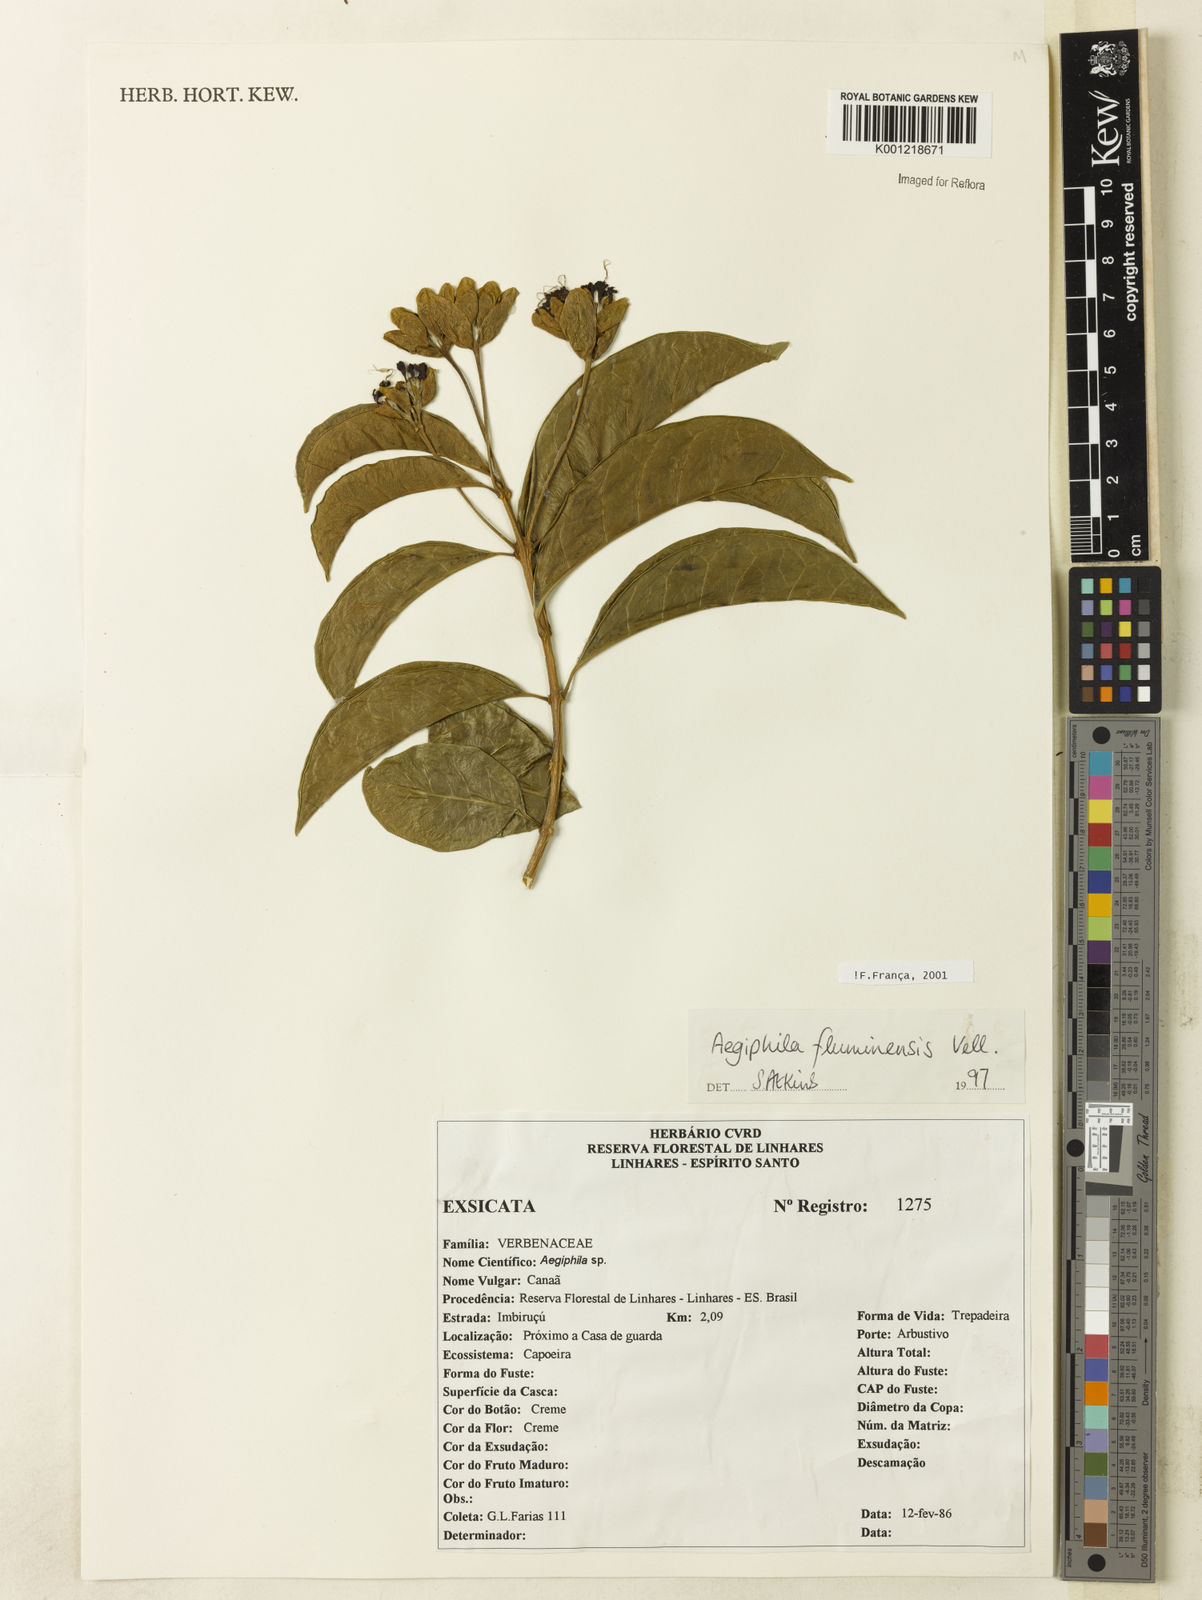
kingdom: Plantae
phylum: Tracheophyta
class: Magnoliopsida
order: Lamiales
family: Lamiaceae
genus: Aegiphila
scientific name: Aegiphila fluminensis
